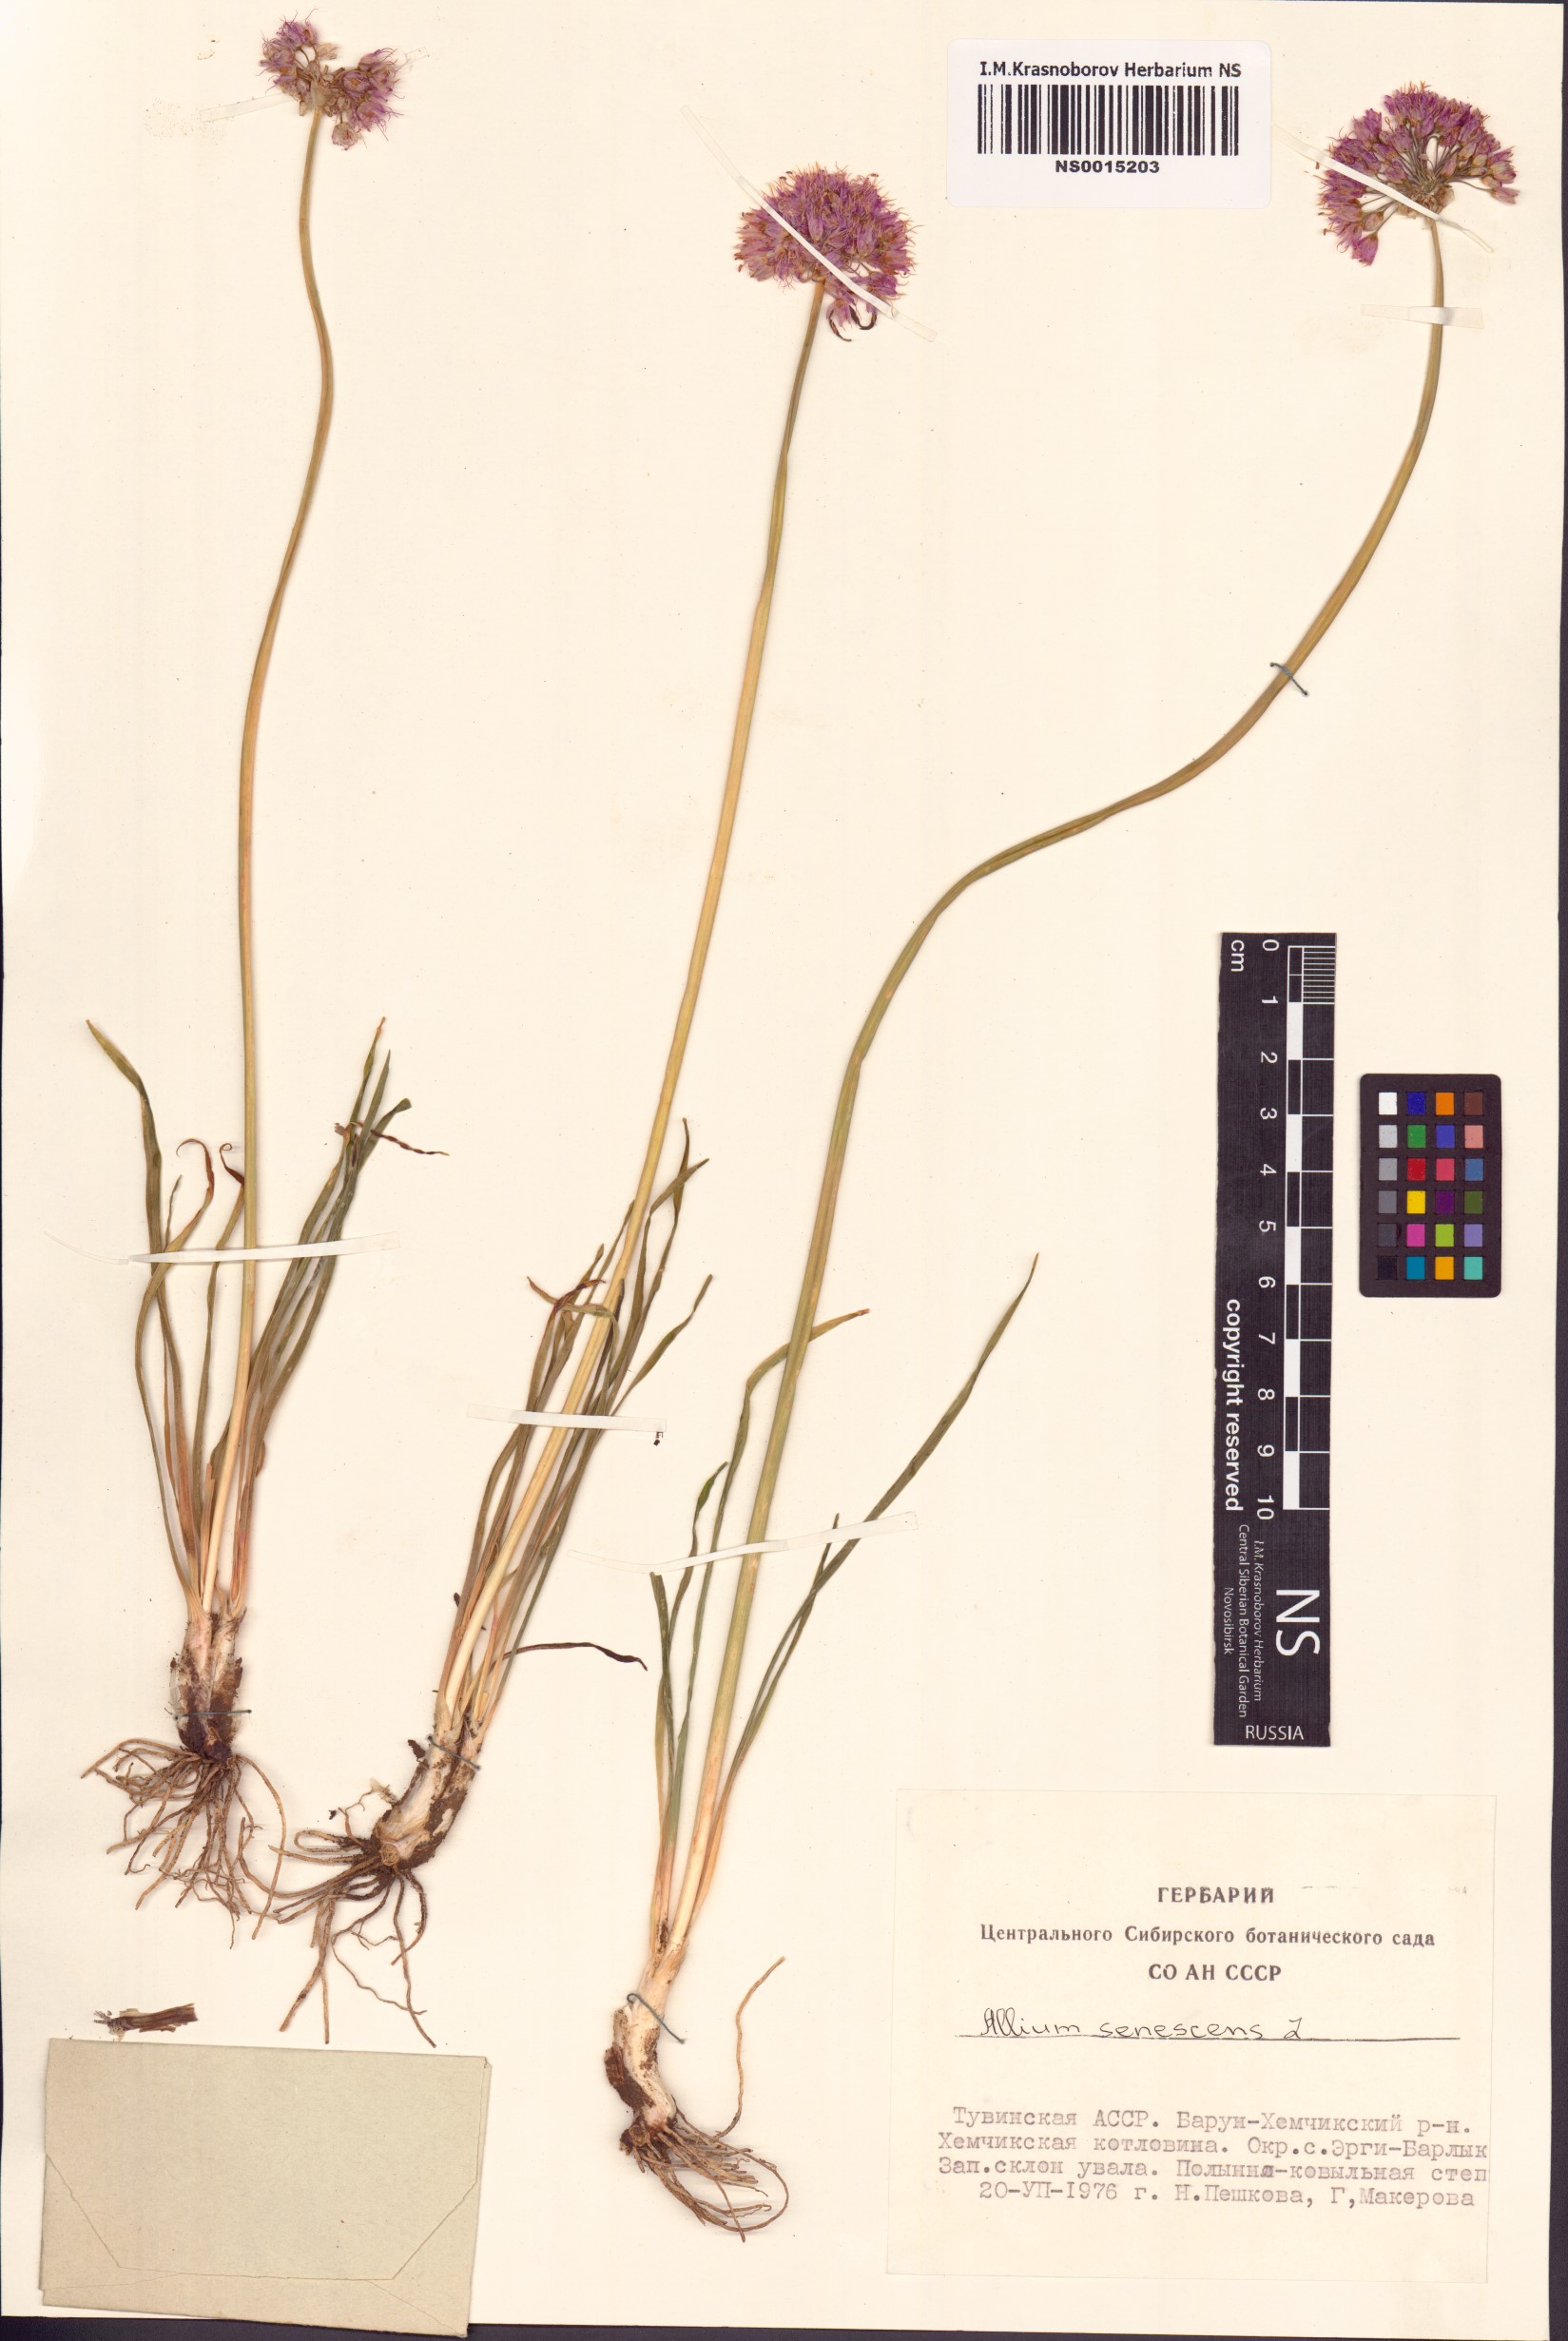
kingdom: Plantae
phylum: Tracheophyta
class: Liliopsida
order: Asparagales
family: Amaryllidaceae
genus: Allium
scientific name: Allium senescens
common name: German garlic
